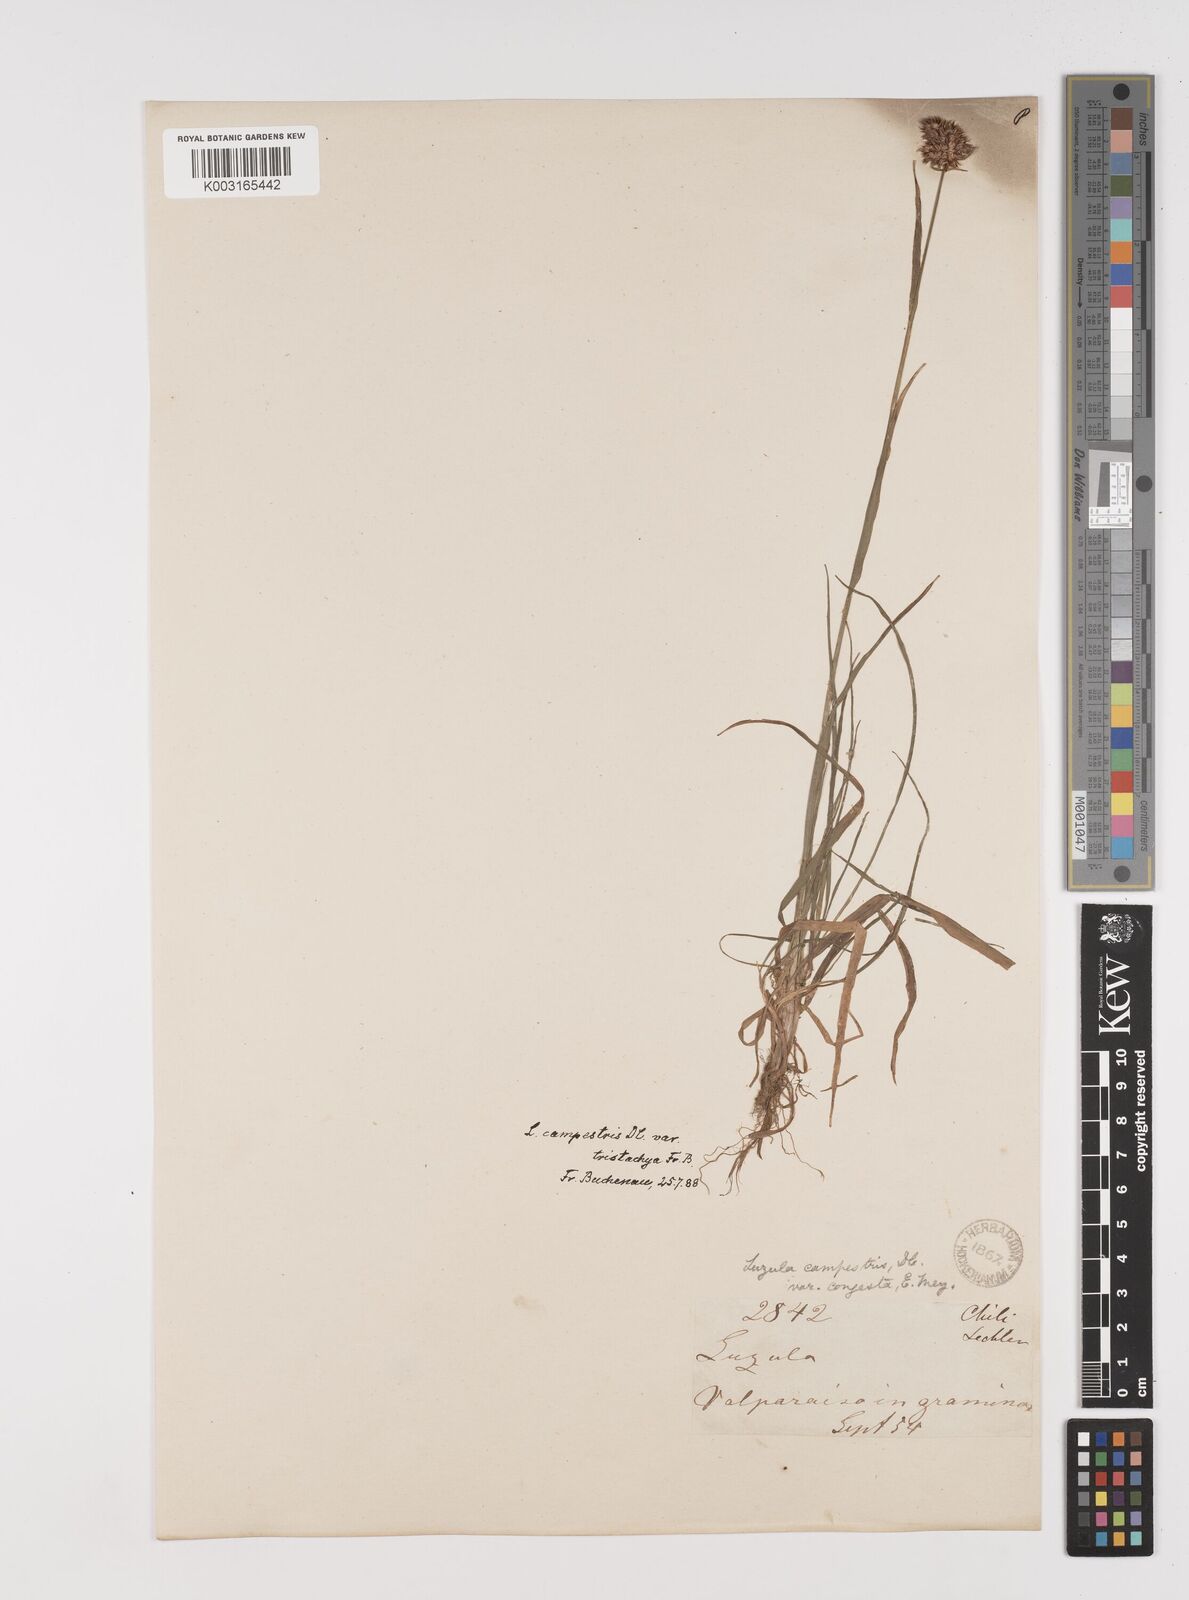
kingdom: Plantae
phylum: Tracheophyta
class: Liliopsida
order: Poales
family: Juncaceae
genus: Luzula
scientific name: Luzula tristachya
